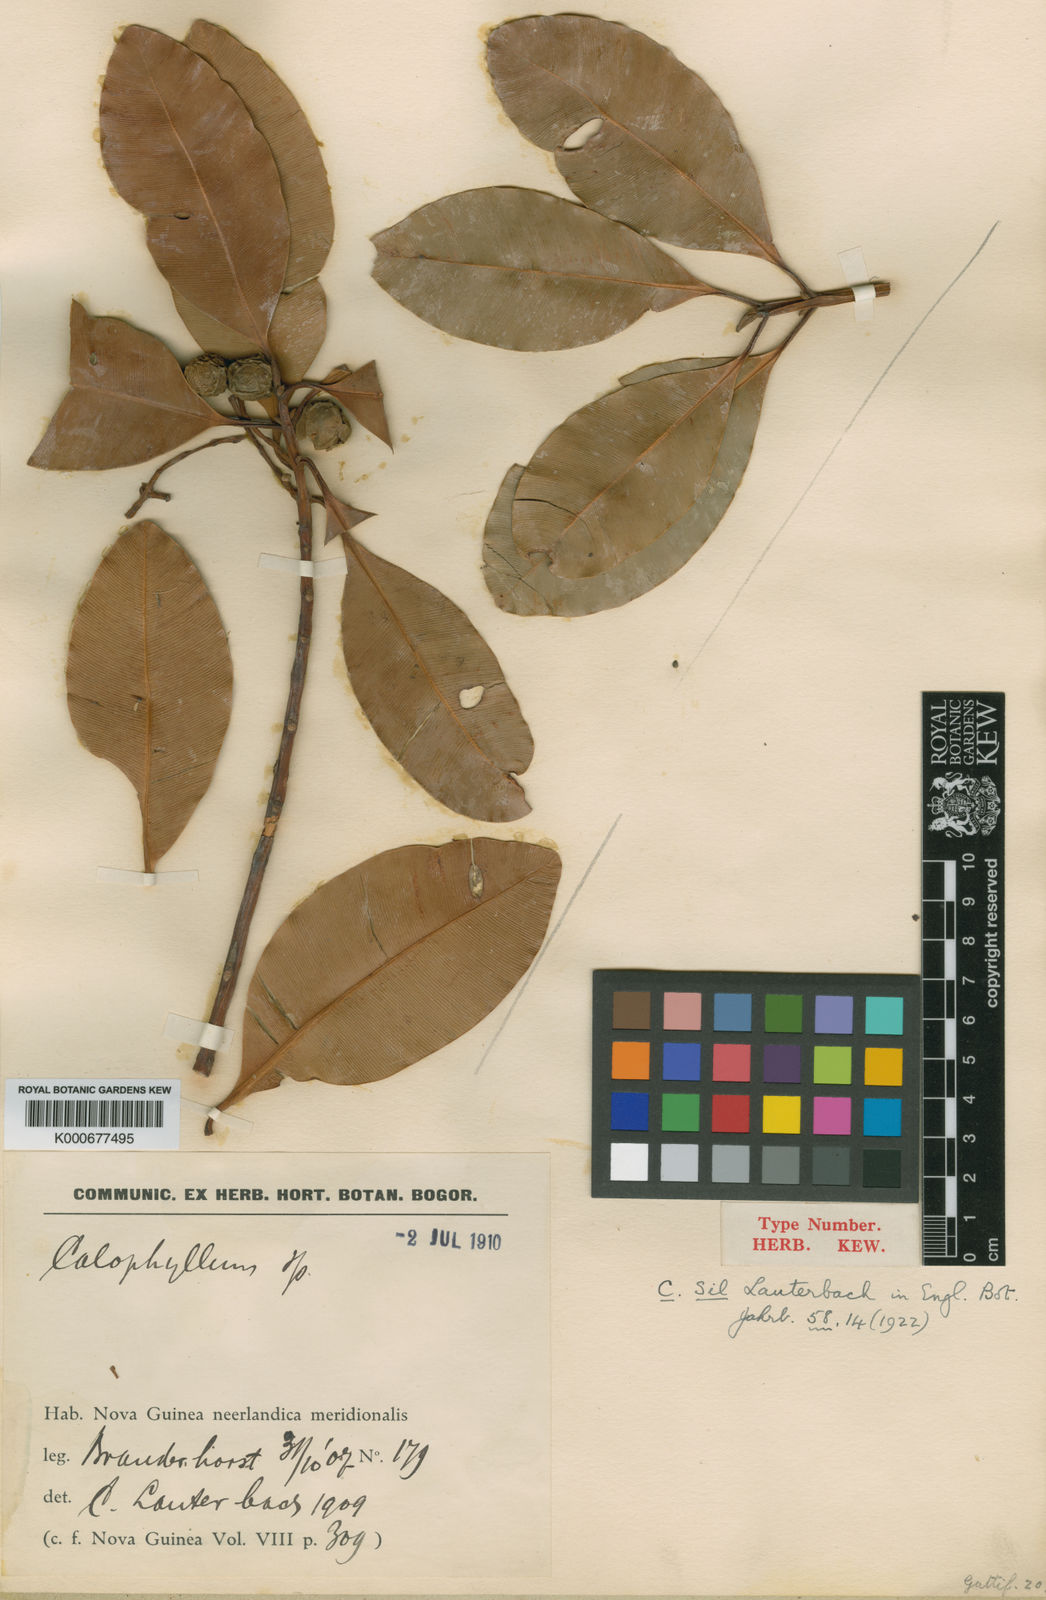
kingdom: Plantae
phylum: Tracheophyta
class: Magnoliopsida
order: Malpighiales
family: Calophyllaceae
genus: Calophyllum
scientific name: Calophyllum sil
